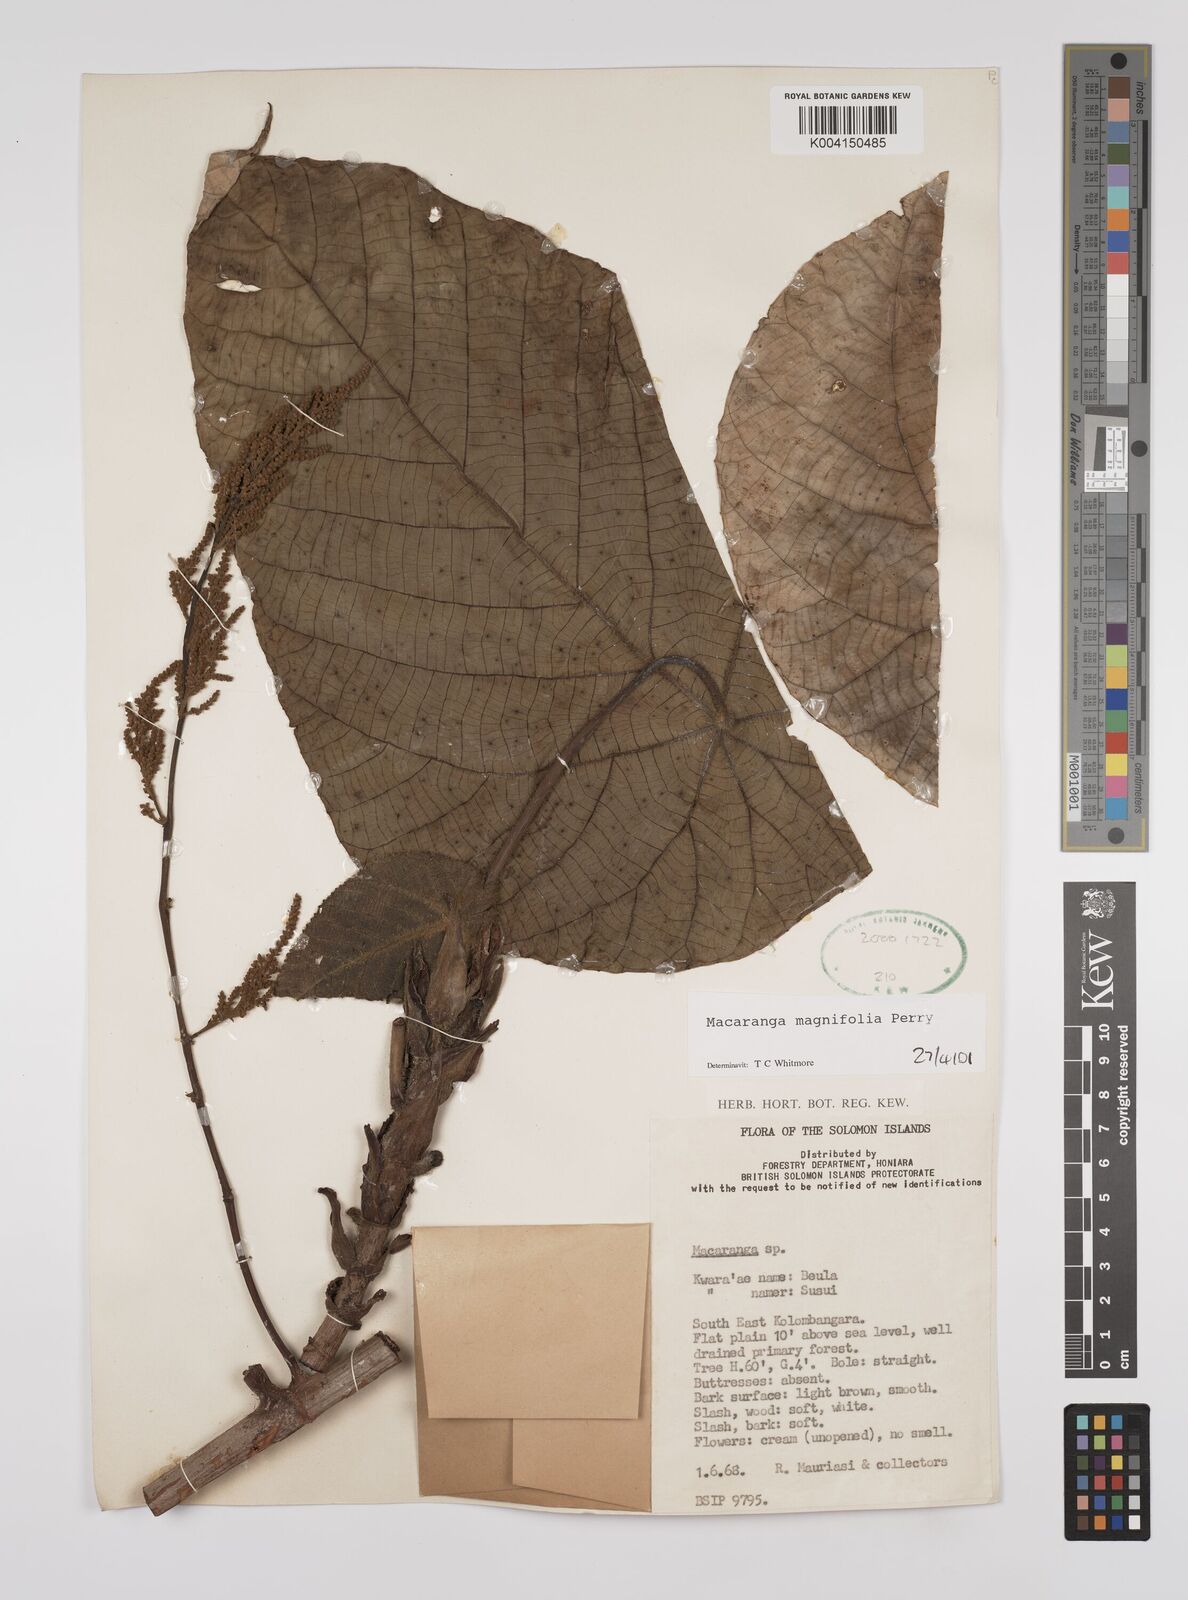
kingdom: Plantae
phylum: Tracheophyta
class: Magnoliopsida
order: Malpighiales
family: Euphorbiaceae
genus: Macaranga
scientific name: Macaranga magnifolia
